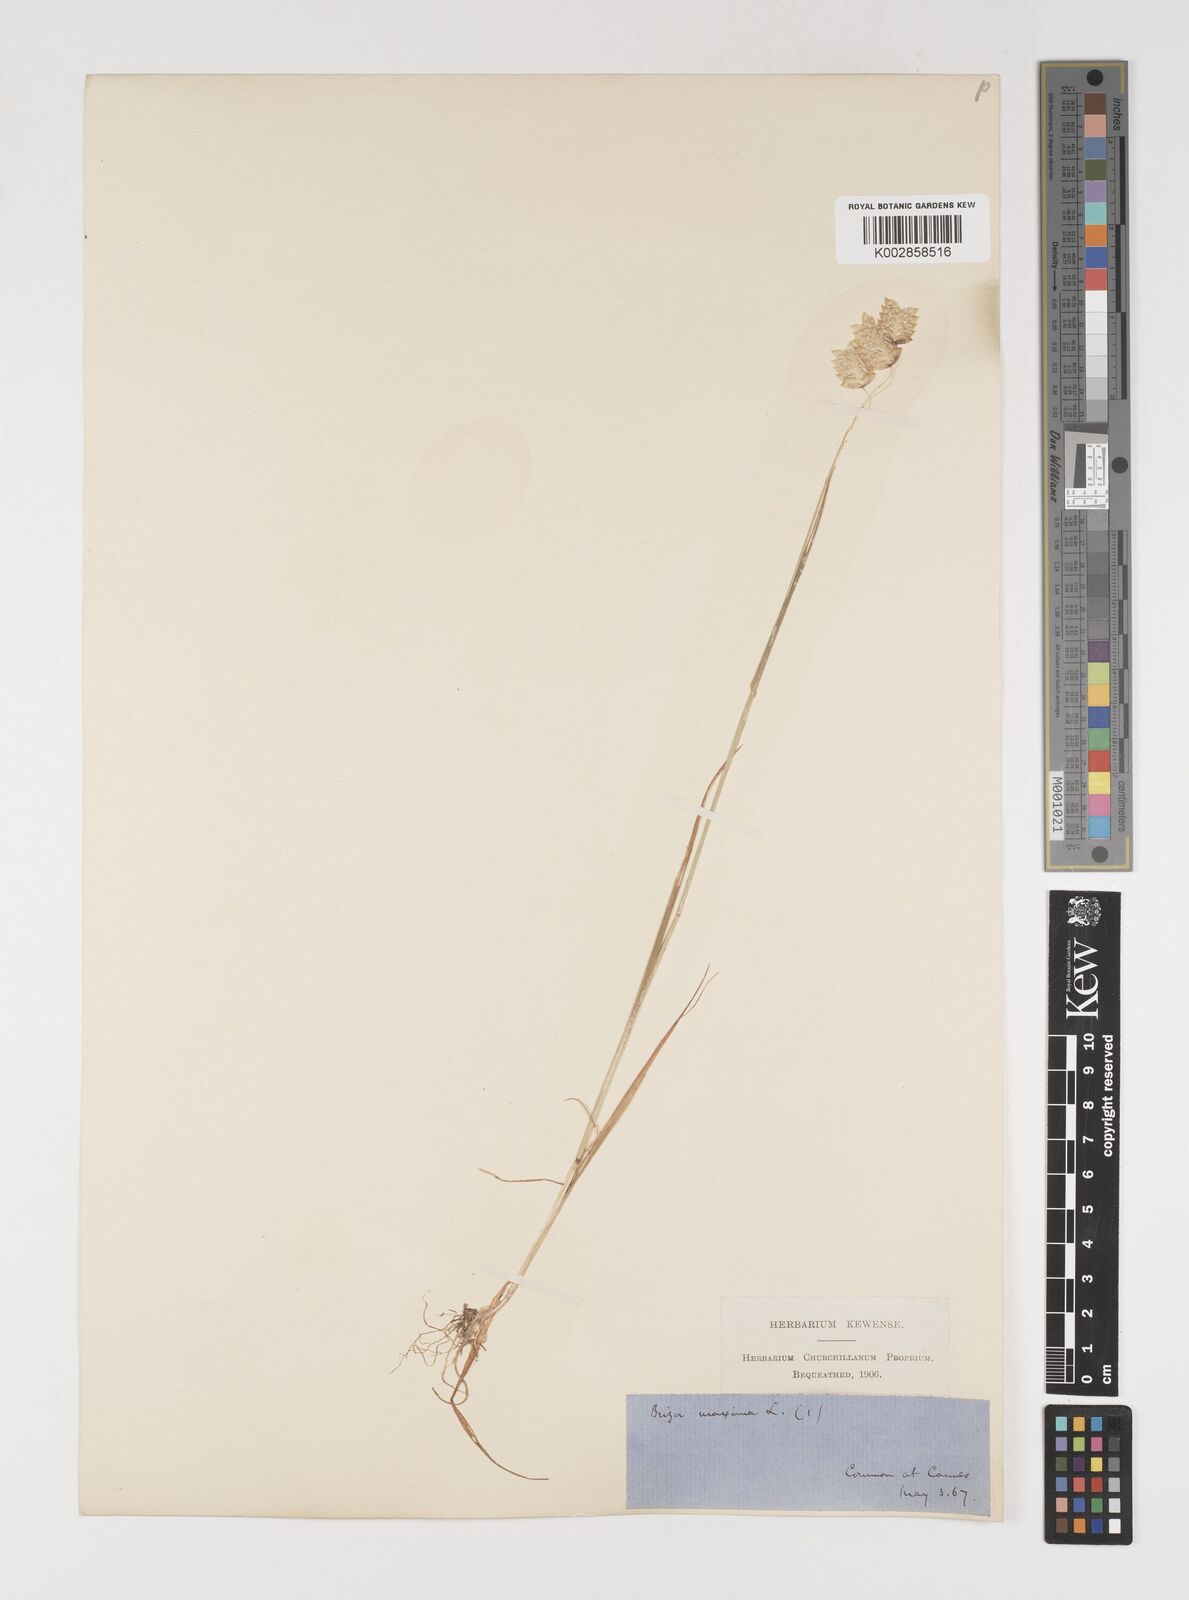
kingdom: Plantae
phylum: Tracheophyta
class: Liliopsida
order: Poales
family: Poaceae
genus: Briza
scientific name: Briza maxima
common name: Big quakinggrass
